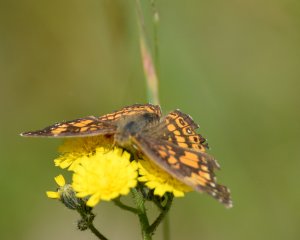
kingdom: Animalia
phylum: Arthropoda
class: Insecta
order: Lepidoptera
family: Nymphalidae
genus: Chlosyne
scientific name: Chlosyne nycteis
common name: Silvery Checkerspot
